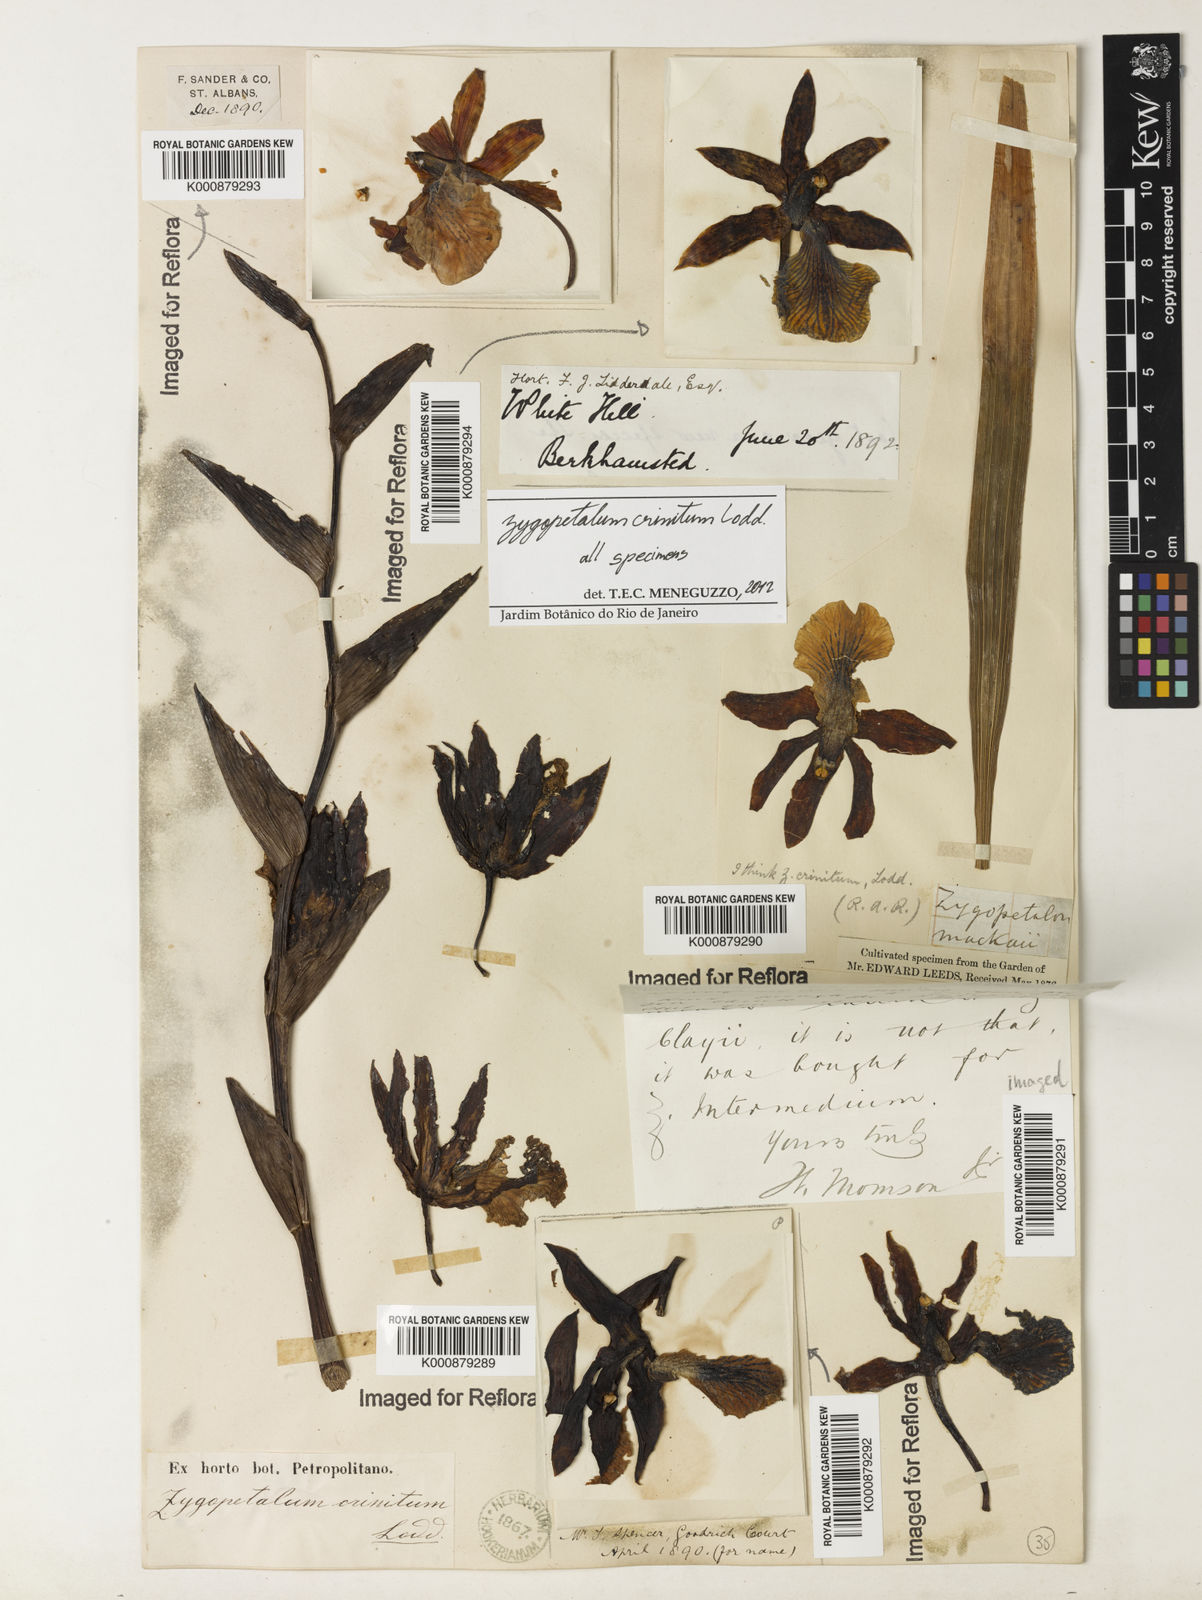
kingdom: Plantae
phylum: Tracheophyta
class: Liliopsida
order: Asparagales
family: Orchidaceae
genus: Zygopetalum
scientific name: Zygopetalum crinitum
